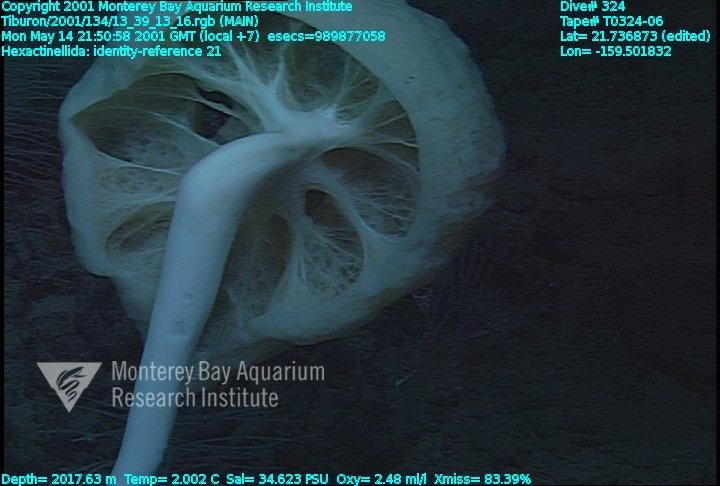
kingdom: Animalia
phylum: Porifera
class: Hexactinellida
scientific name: Hexactinellida
